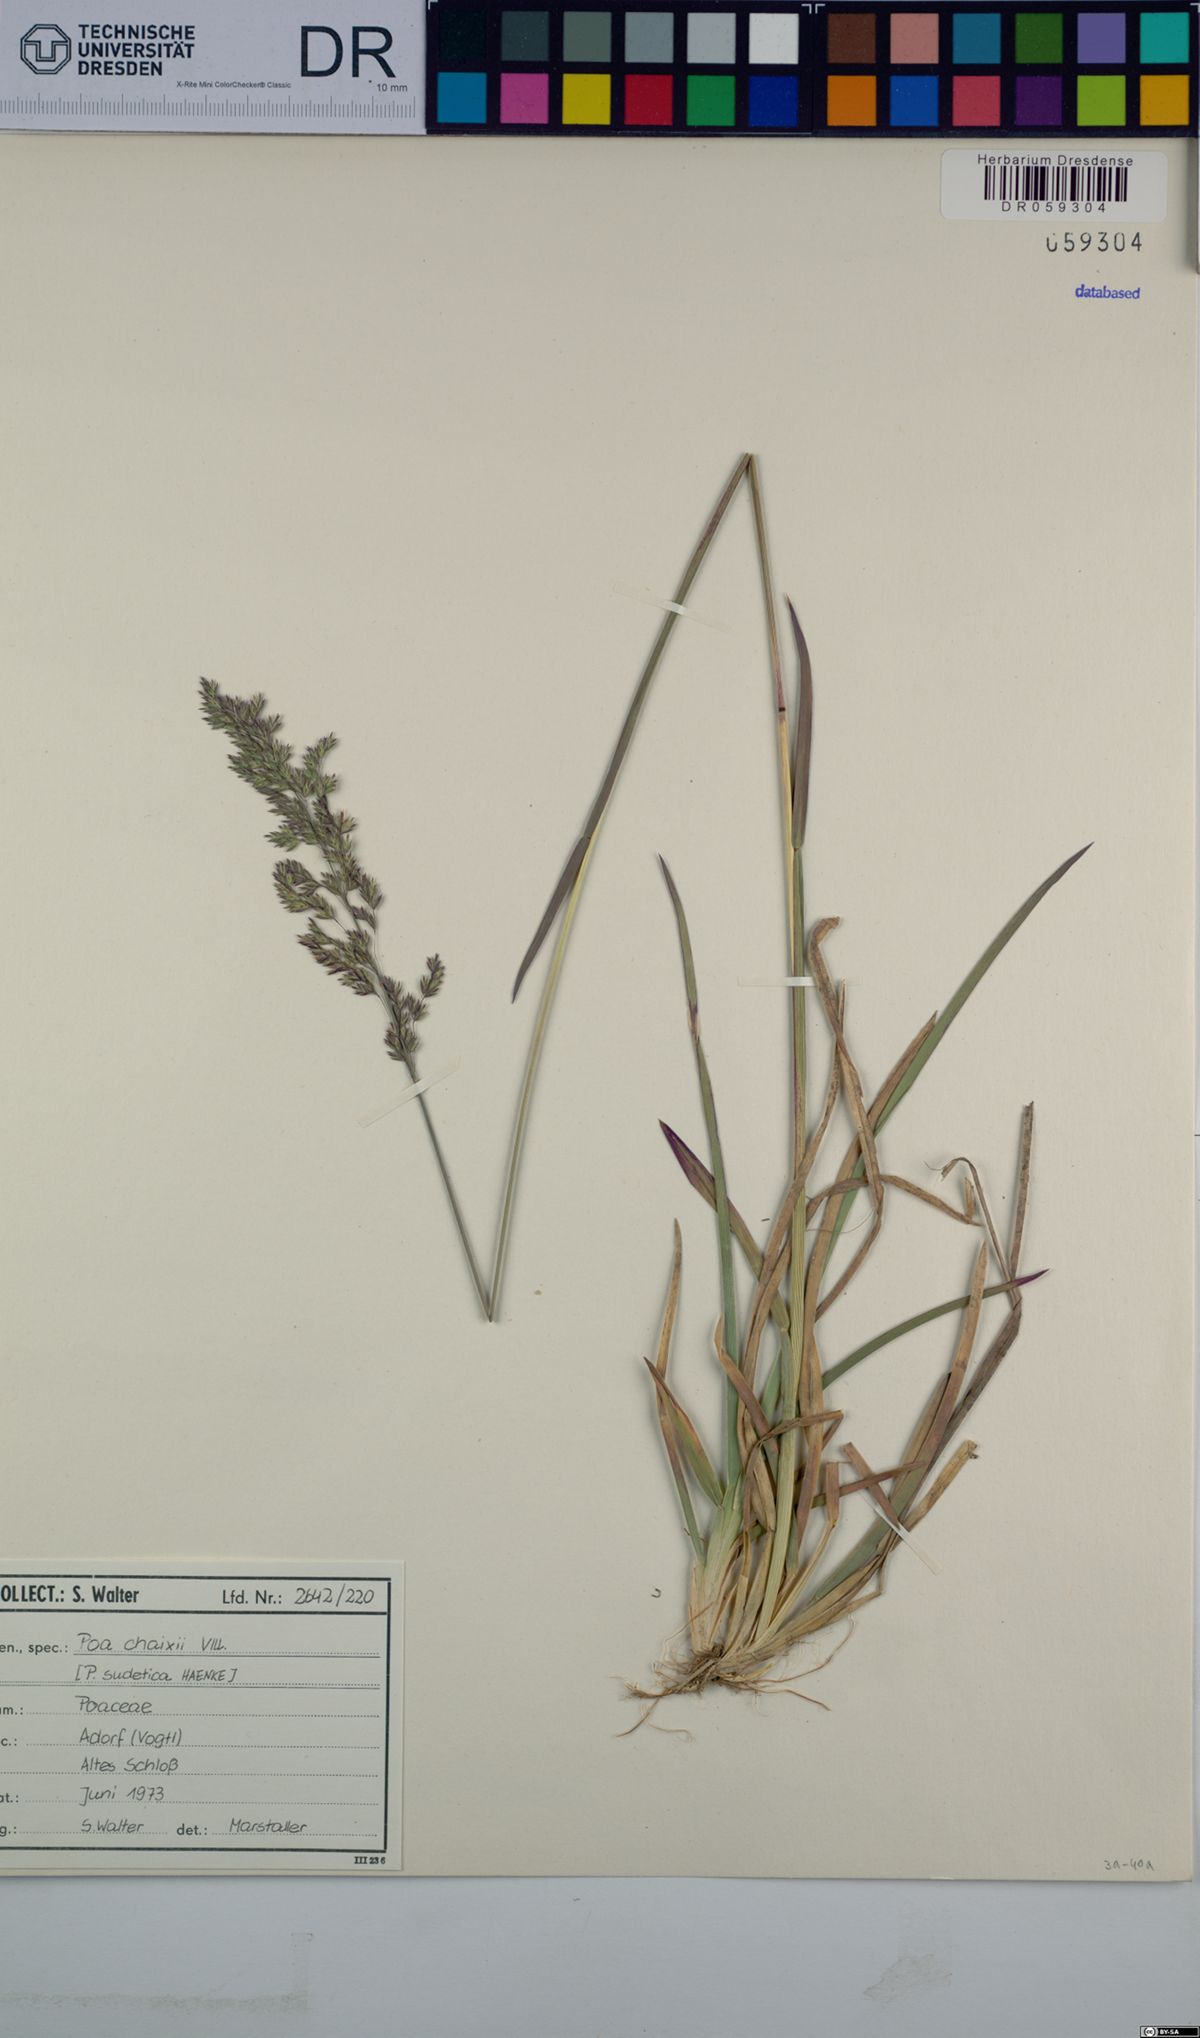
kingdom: Plantae
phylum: Tracheophyta
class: Liliopsida
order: Poales
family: Poaceae
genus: Poa
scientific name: Poa chaixii
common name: Broad-leaved meadow-grass
